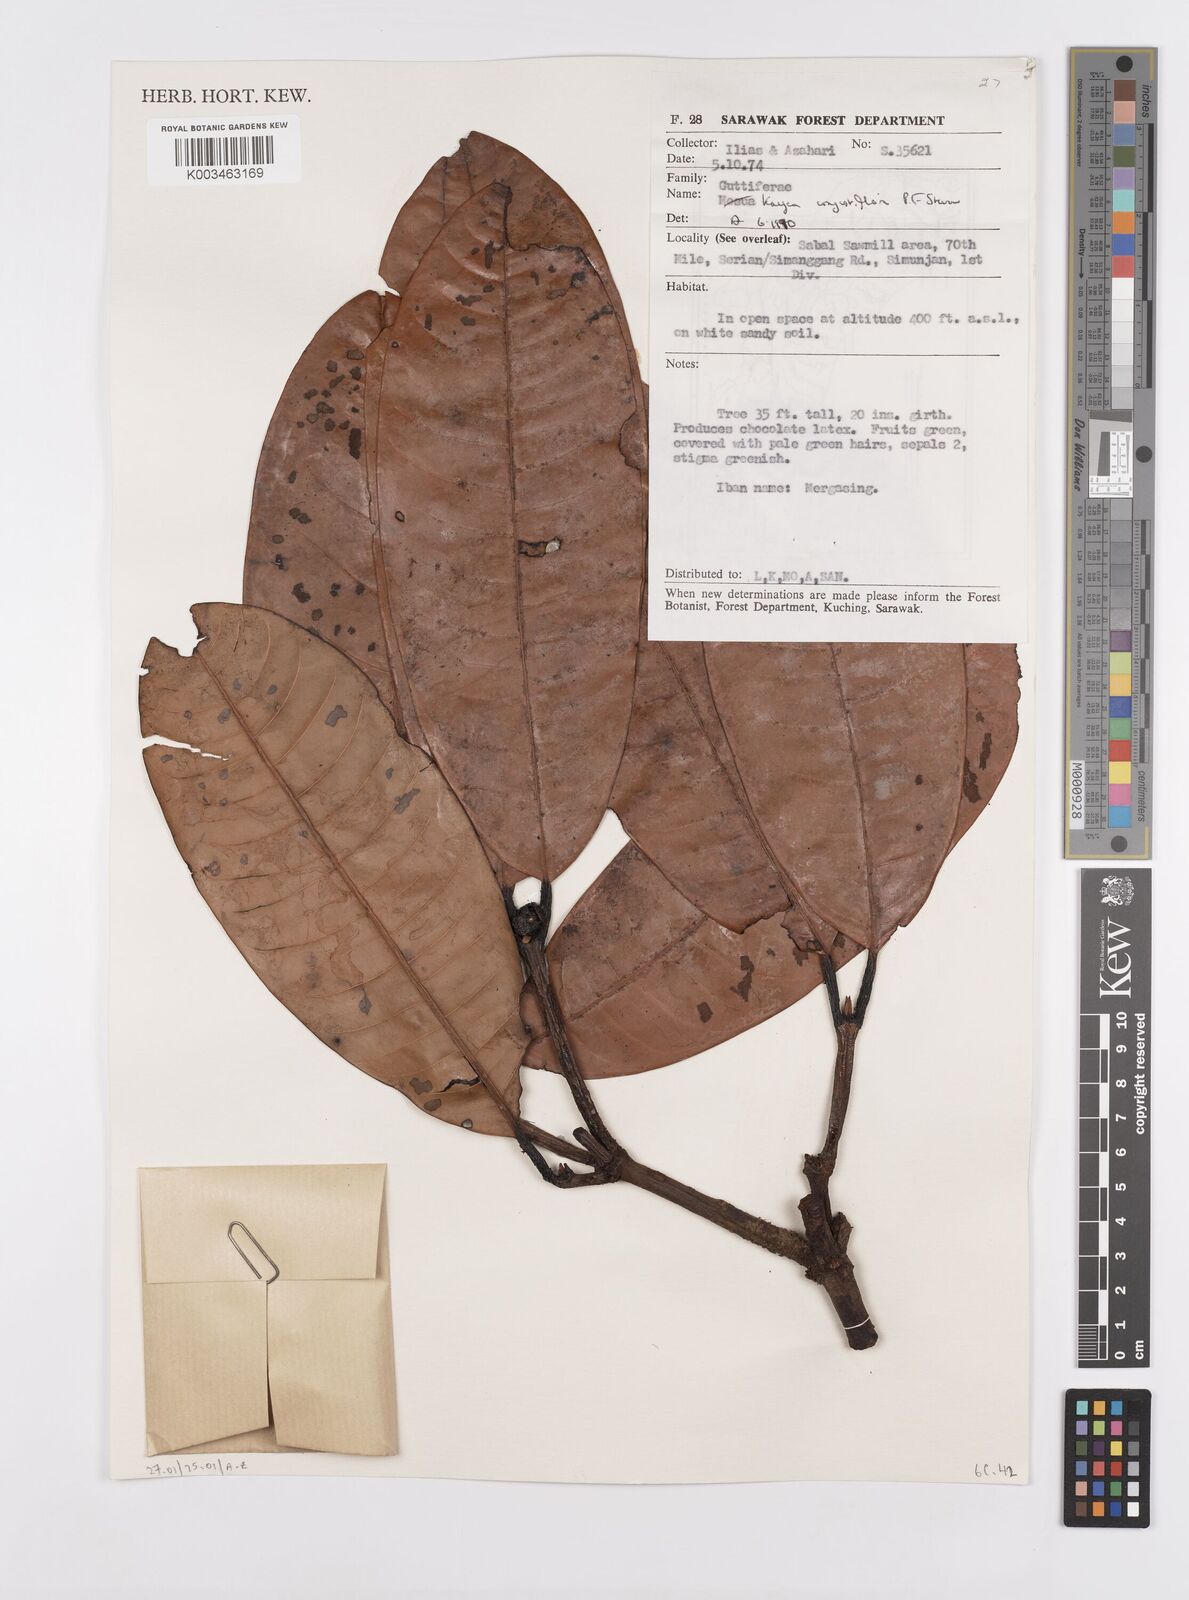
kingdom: Plantae
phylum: Tracheophyta
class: Magnoliopsida
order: Malpighiales
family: Calophyllaceae
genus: Kayea
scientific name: Kayea
